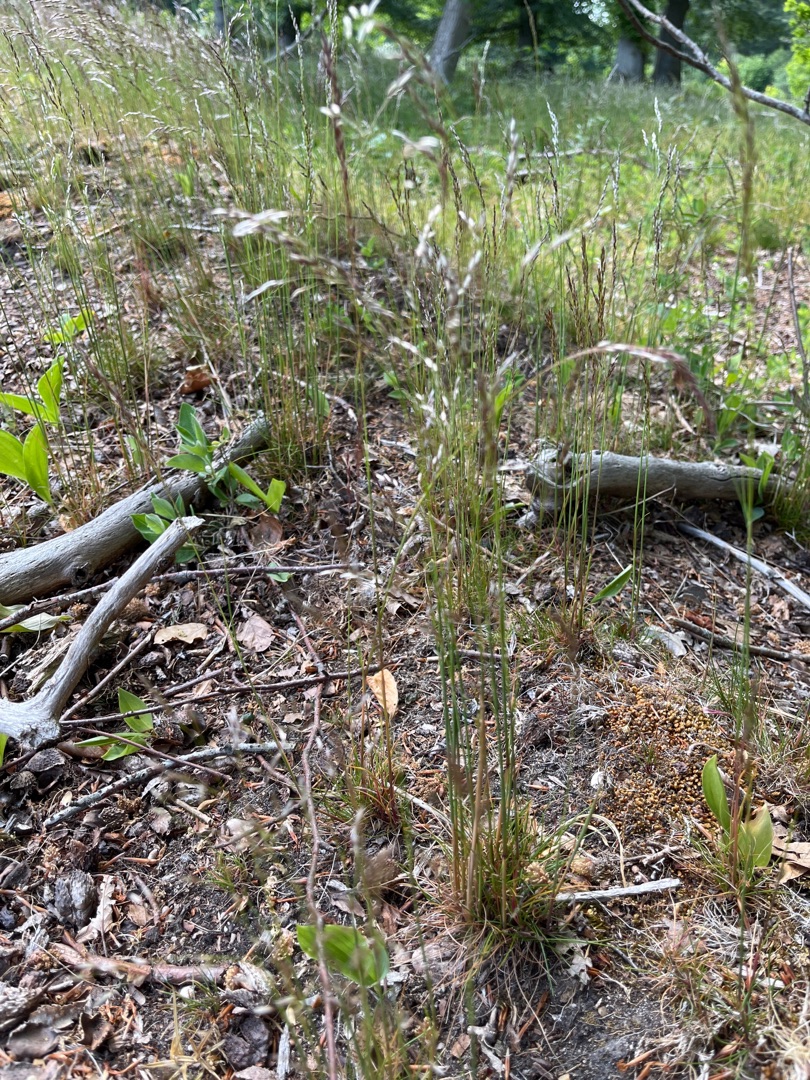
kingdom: Plantae
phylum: Tracheophyta
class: Liliopsida
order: Poales
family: Poaceae
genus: Avenella
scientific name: Avenella flexuosa
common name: Bølget bunke
